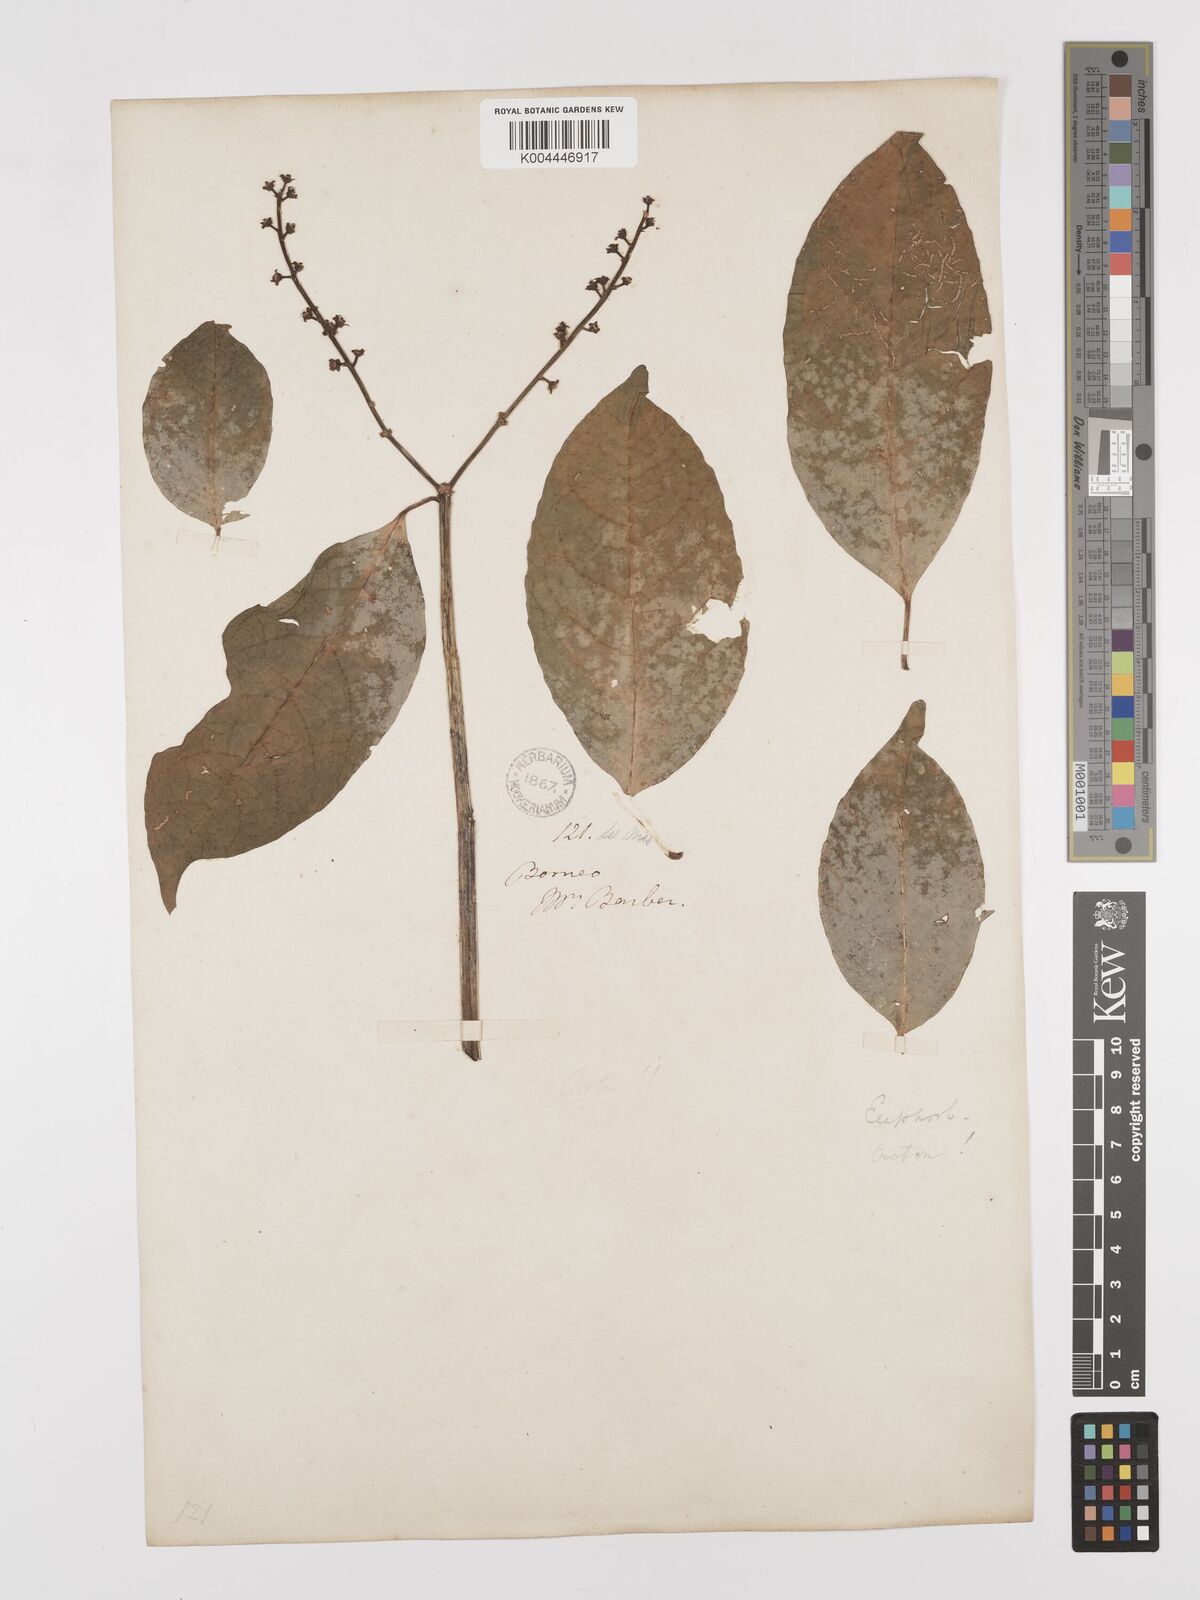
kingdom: Plantae
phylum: Tracheophyta
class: Magnoliopsida
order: Malpighiales
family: Euphorbiaceae
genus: Croton
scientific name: Croton oblongus
